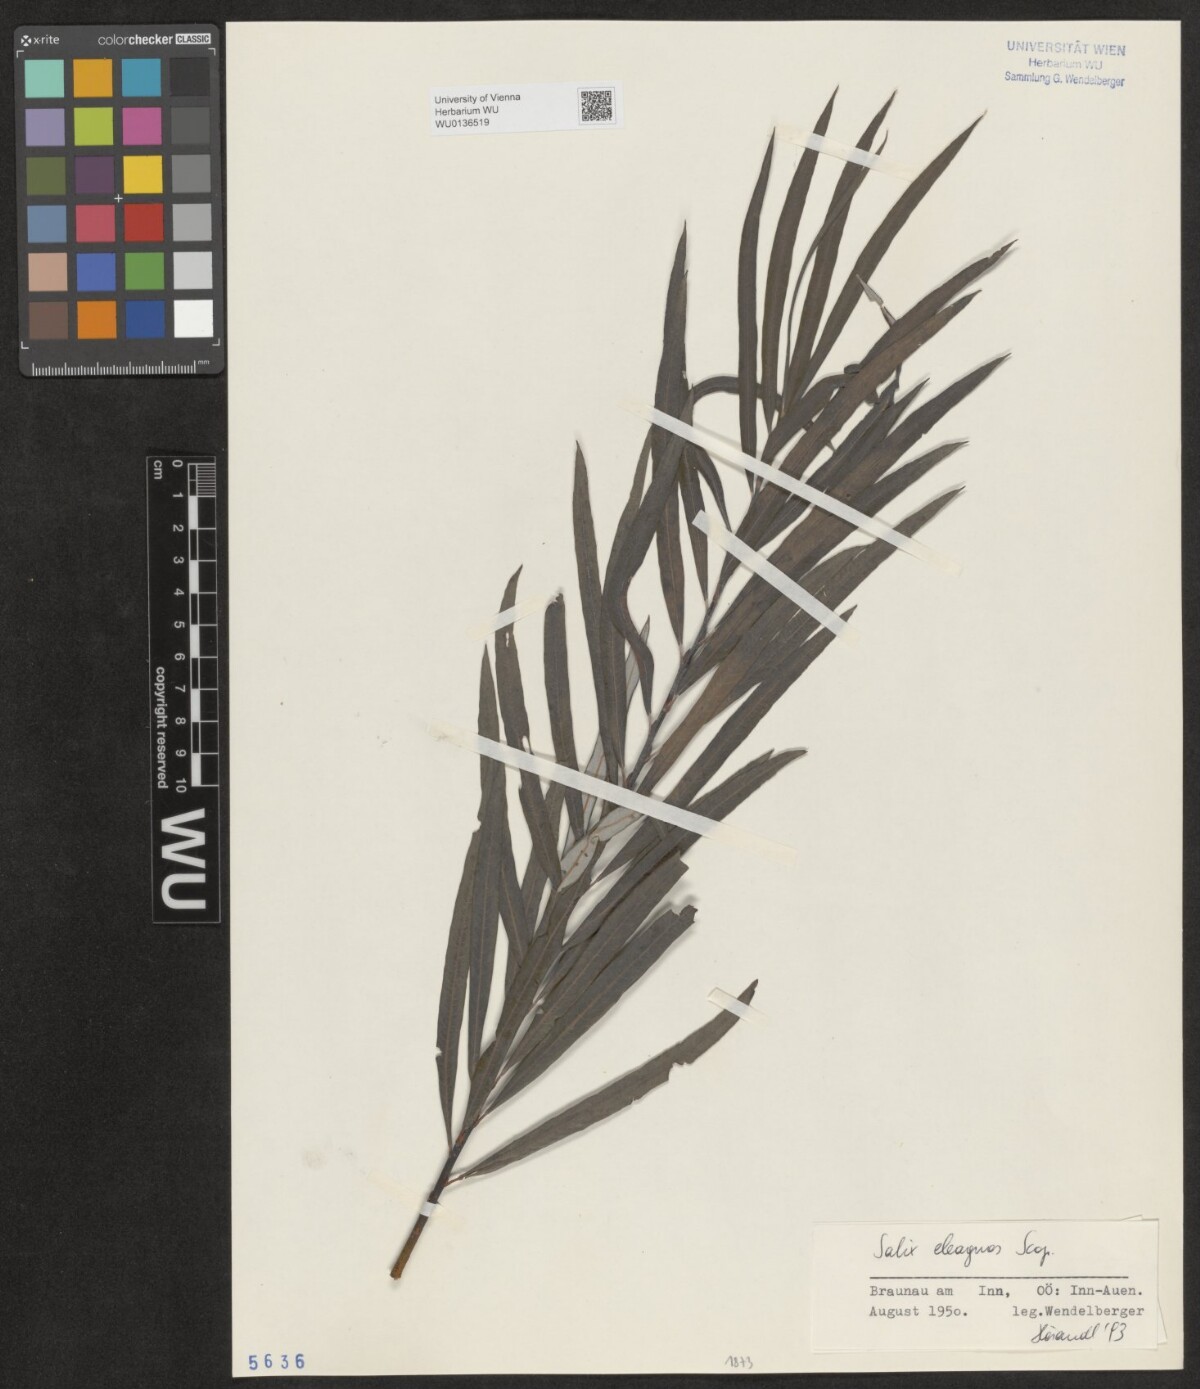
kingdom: Plantae
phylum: Tracheophyta
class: Magnoliopsida
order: Malpighiales
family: Salicaceae
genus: Salix
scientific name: Salix eleagnos
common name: Elaeagnus willow
